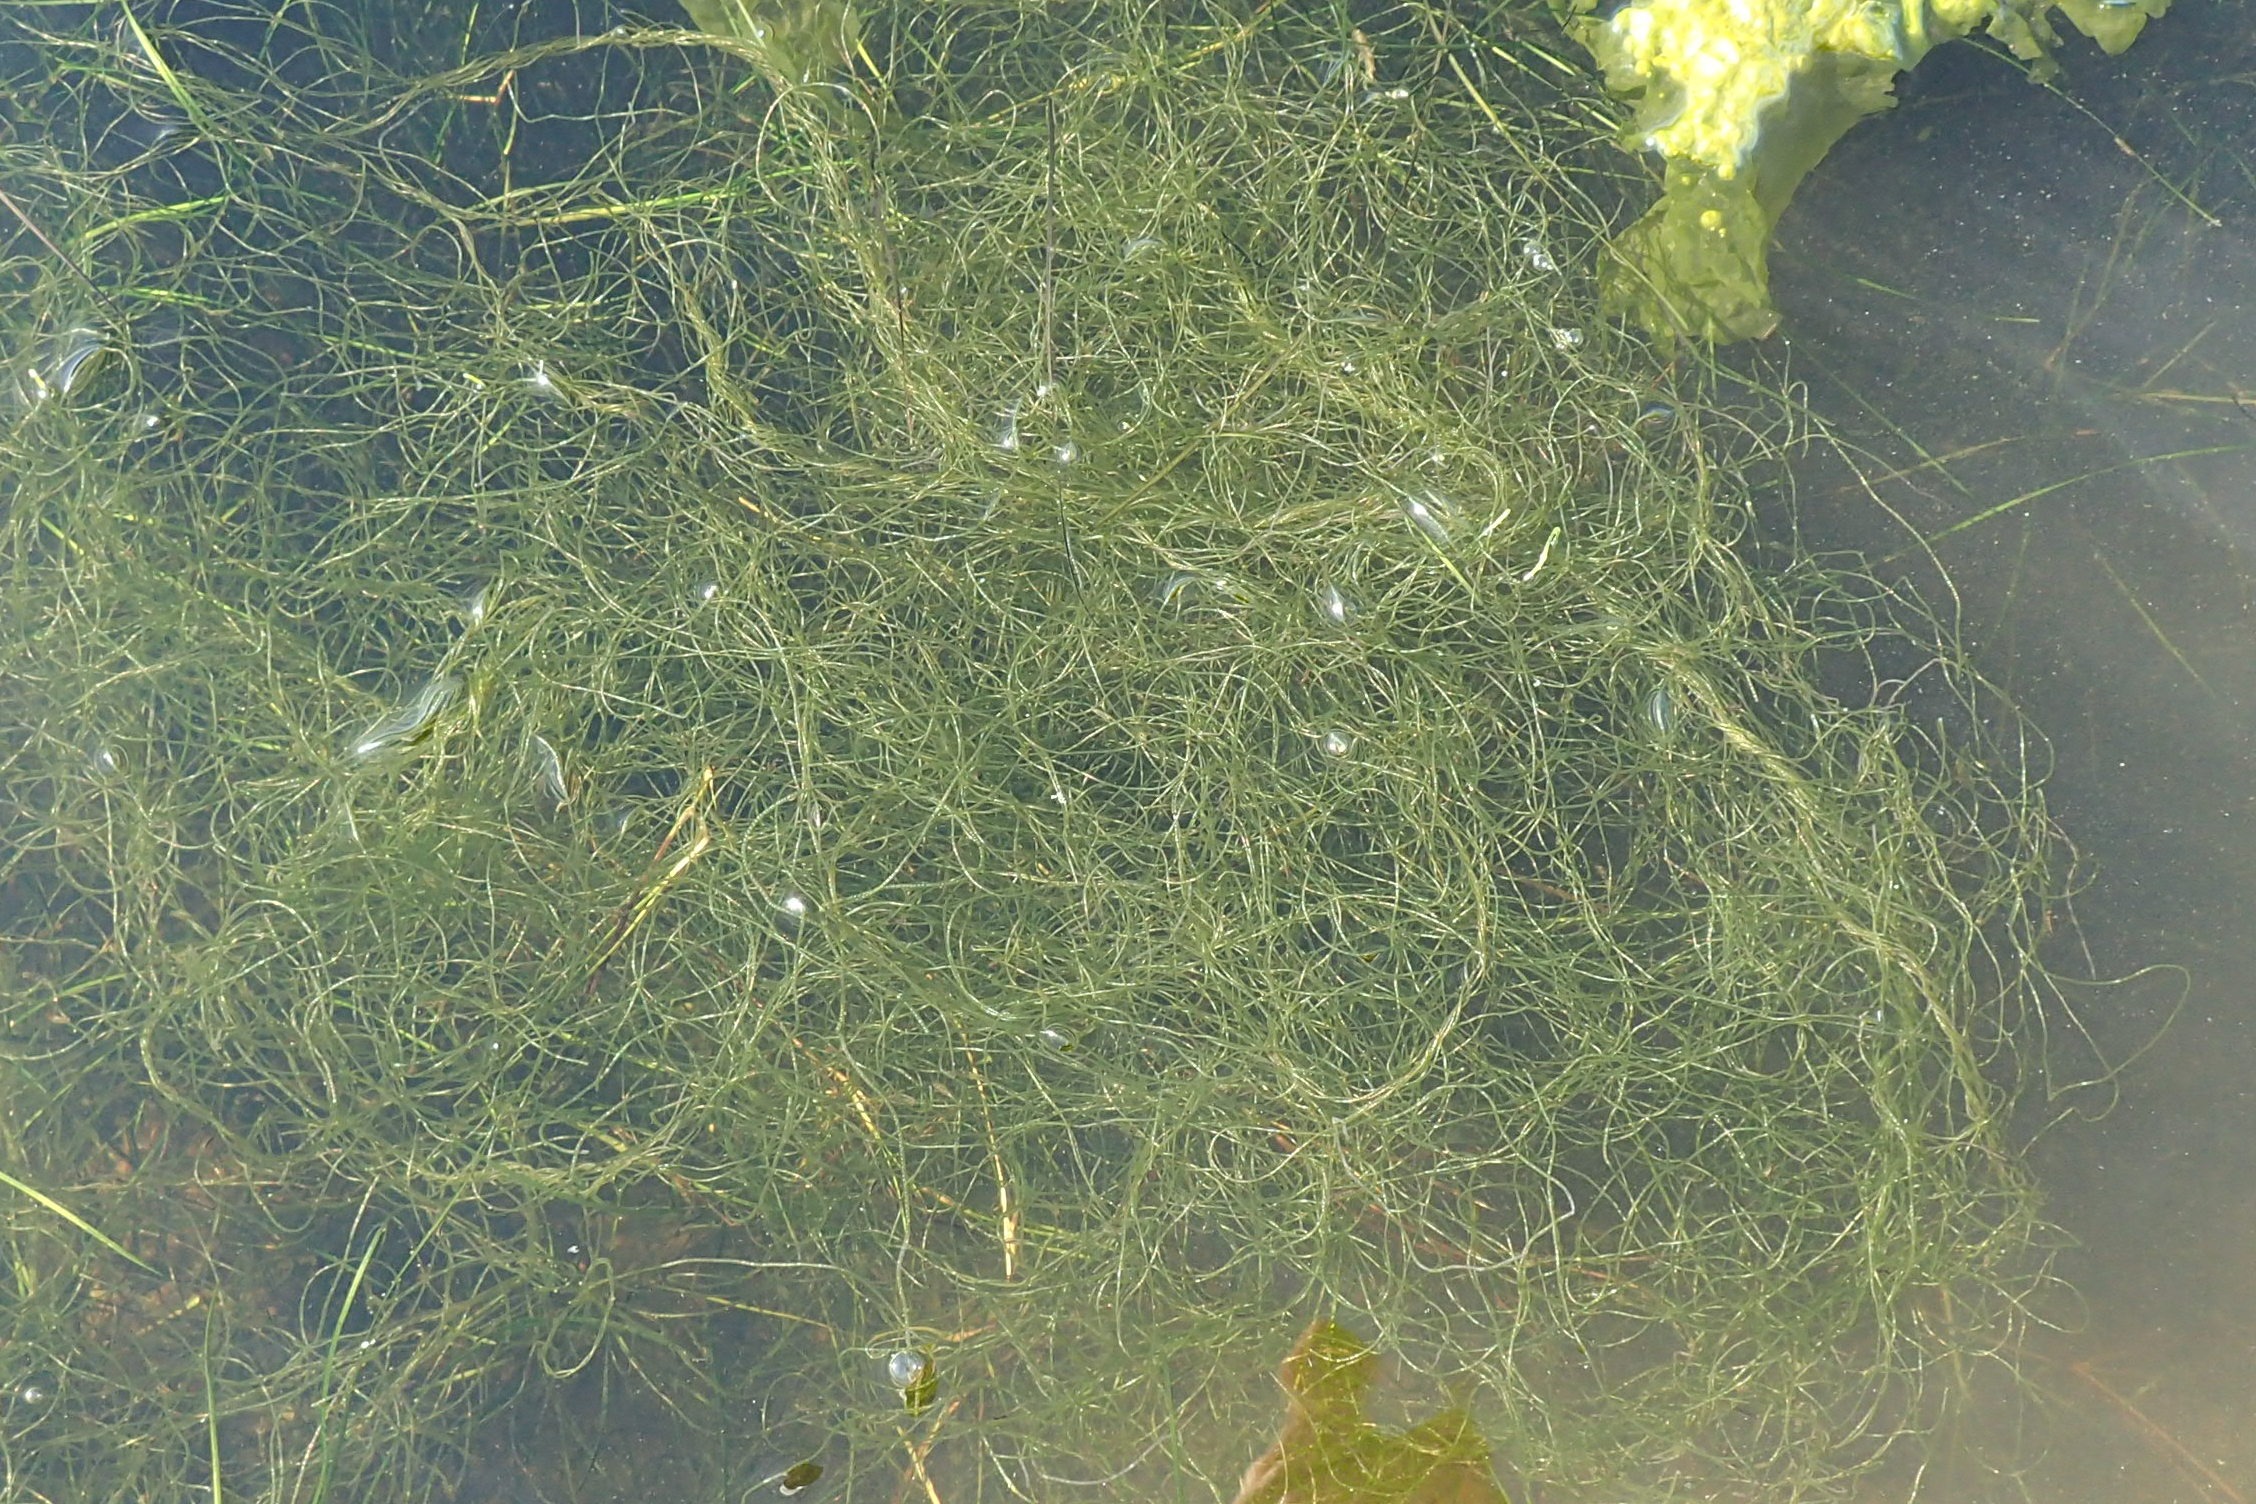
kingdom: Plantae
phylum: Chlorophyta
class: Ulvophyceae
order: Cladophorales
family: Cladophoraceae
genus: Chaetomorpha
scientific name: Chaetomorpha linum
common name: Almindelig børstetråd
